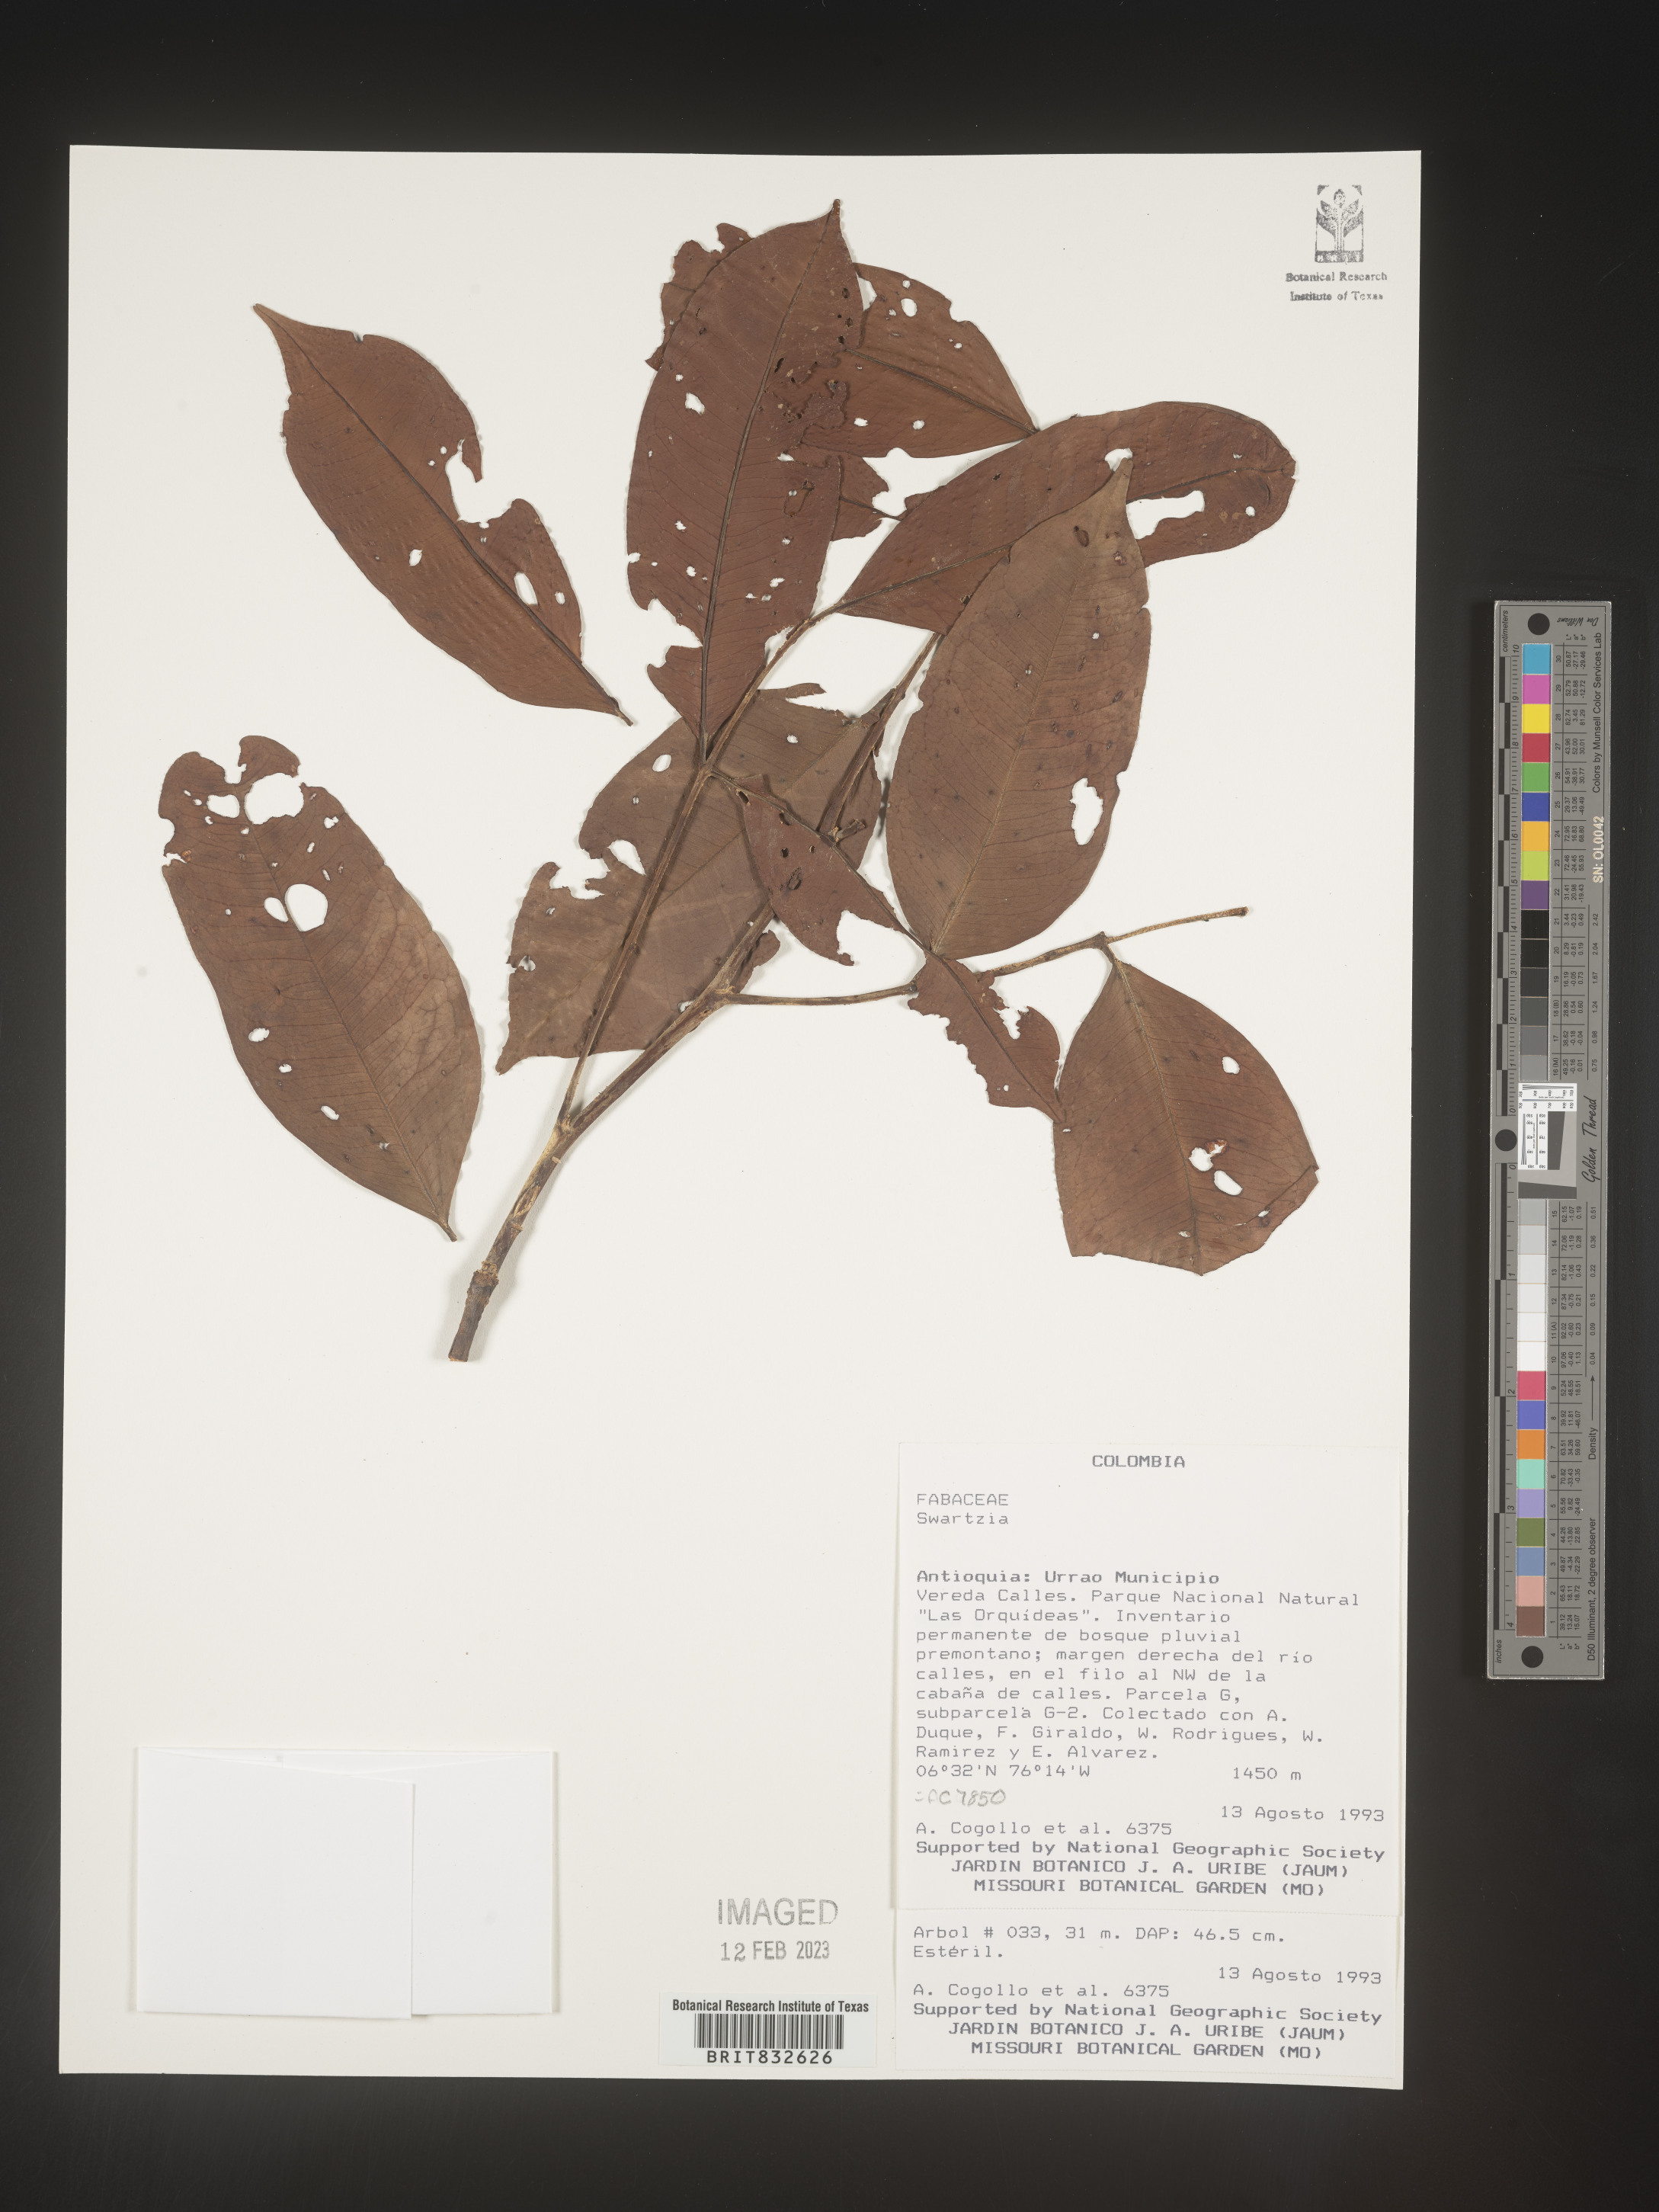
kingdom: Plantae
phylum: Tracheophyta
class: Magnoliopsida
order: Fabales
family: Fabaceae
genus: Swartzia
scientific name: Swartzia
